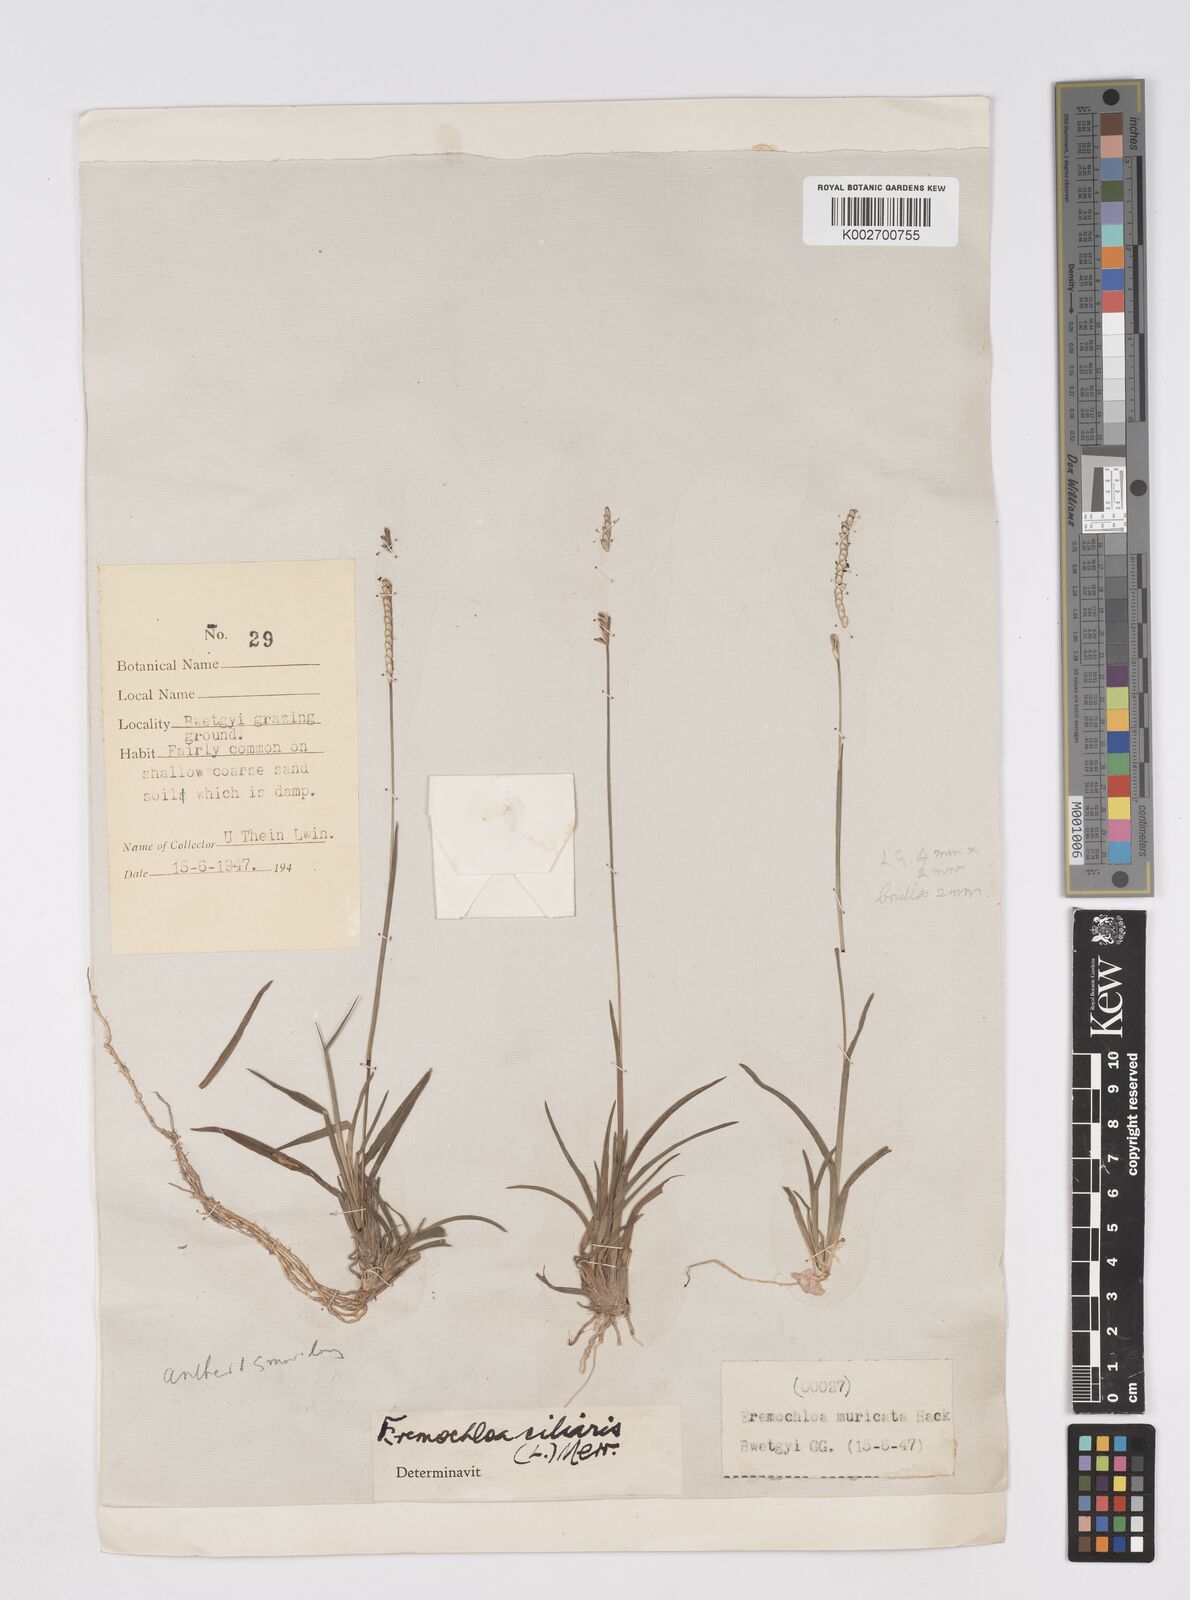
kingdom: Plantae
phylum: Tracheophyta
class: Liliopsida
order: Poales
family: Poaceae
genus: Eremochloa
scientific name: Eremochloa ciliaris
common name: Fringed centipede grass
